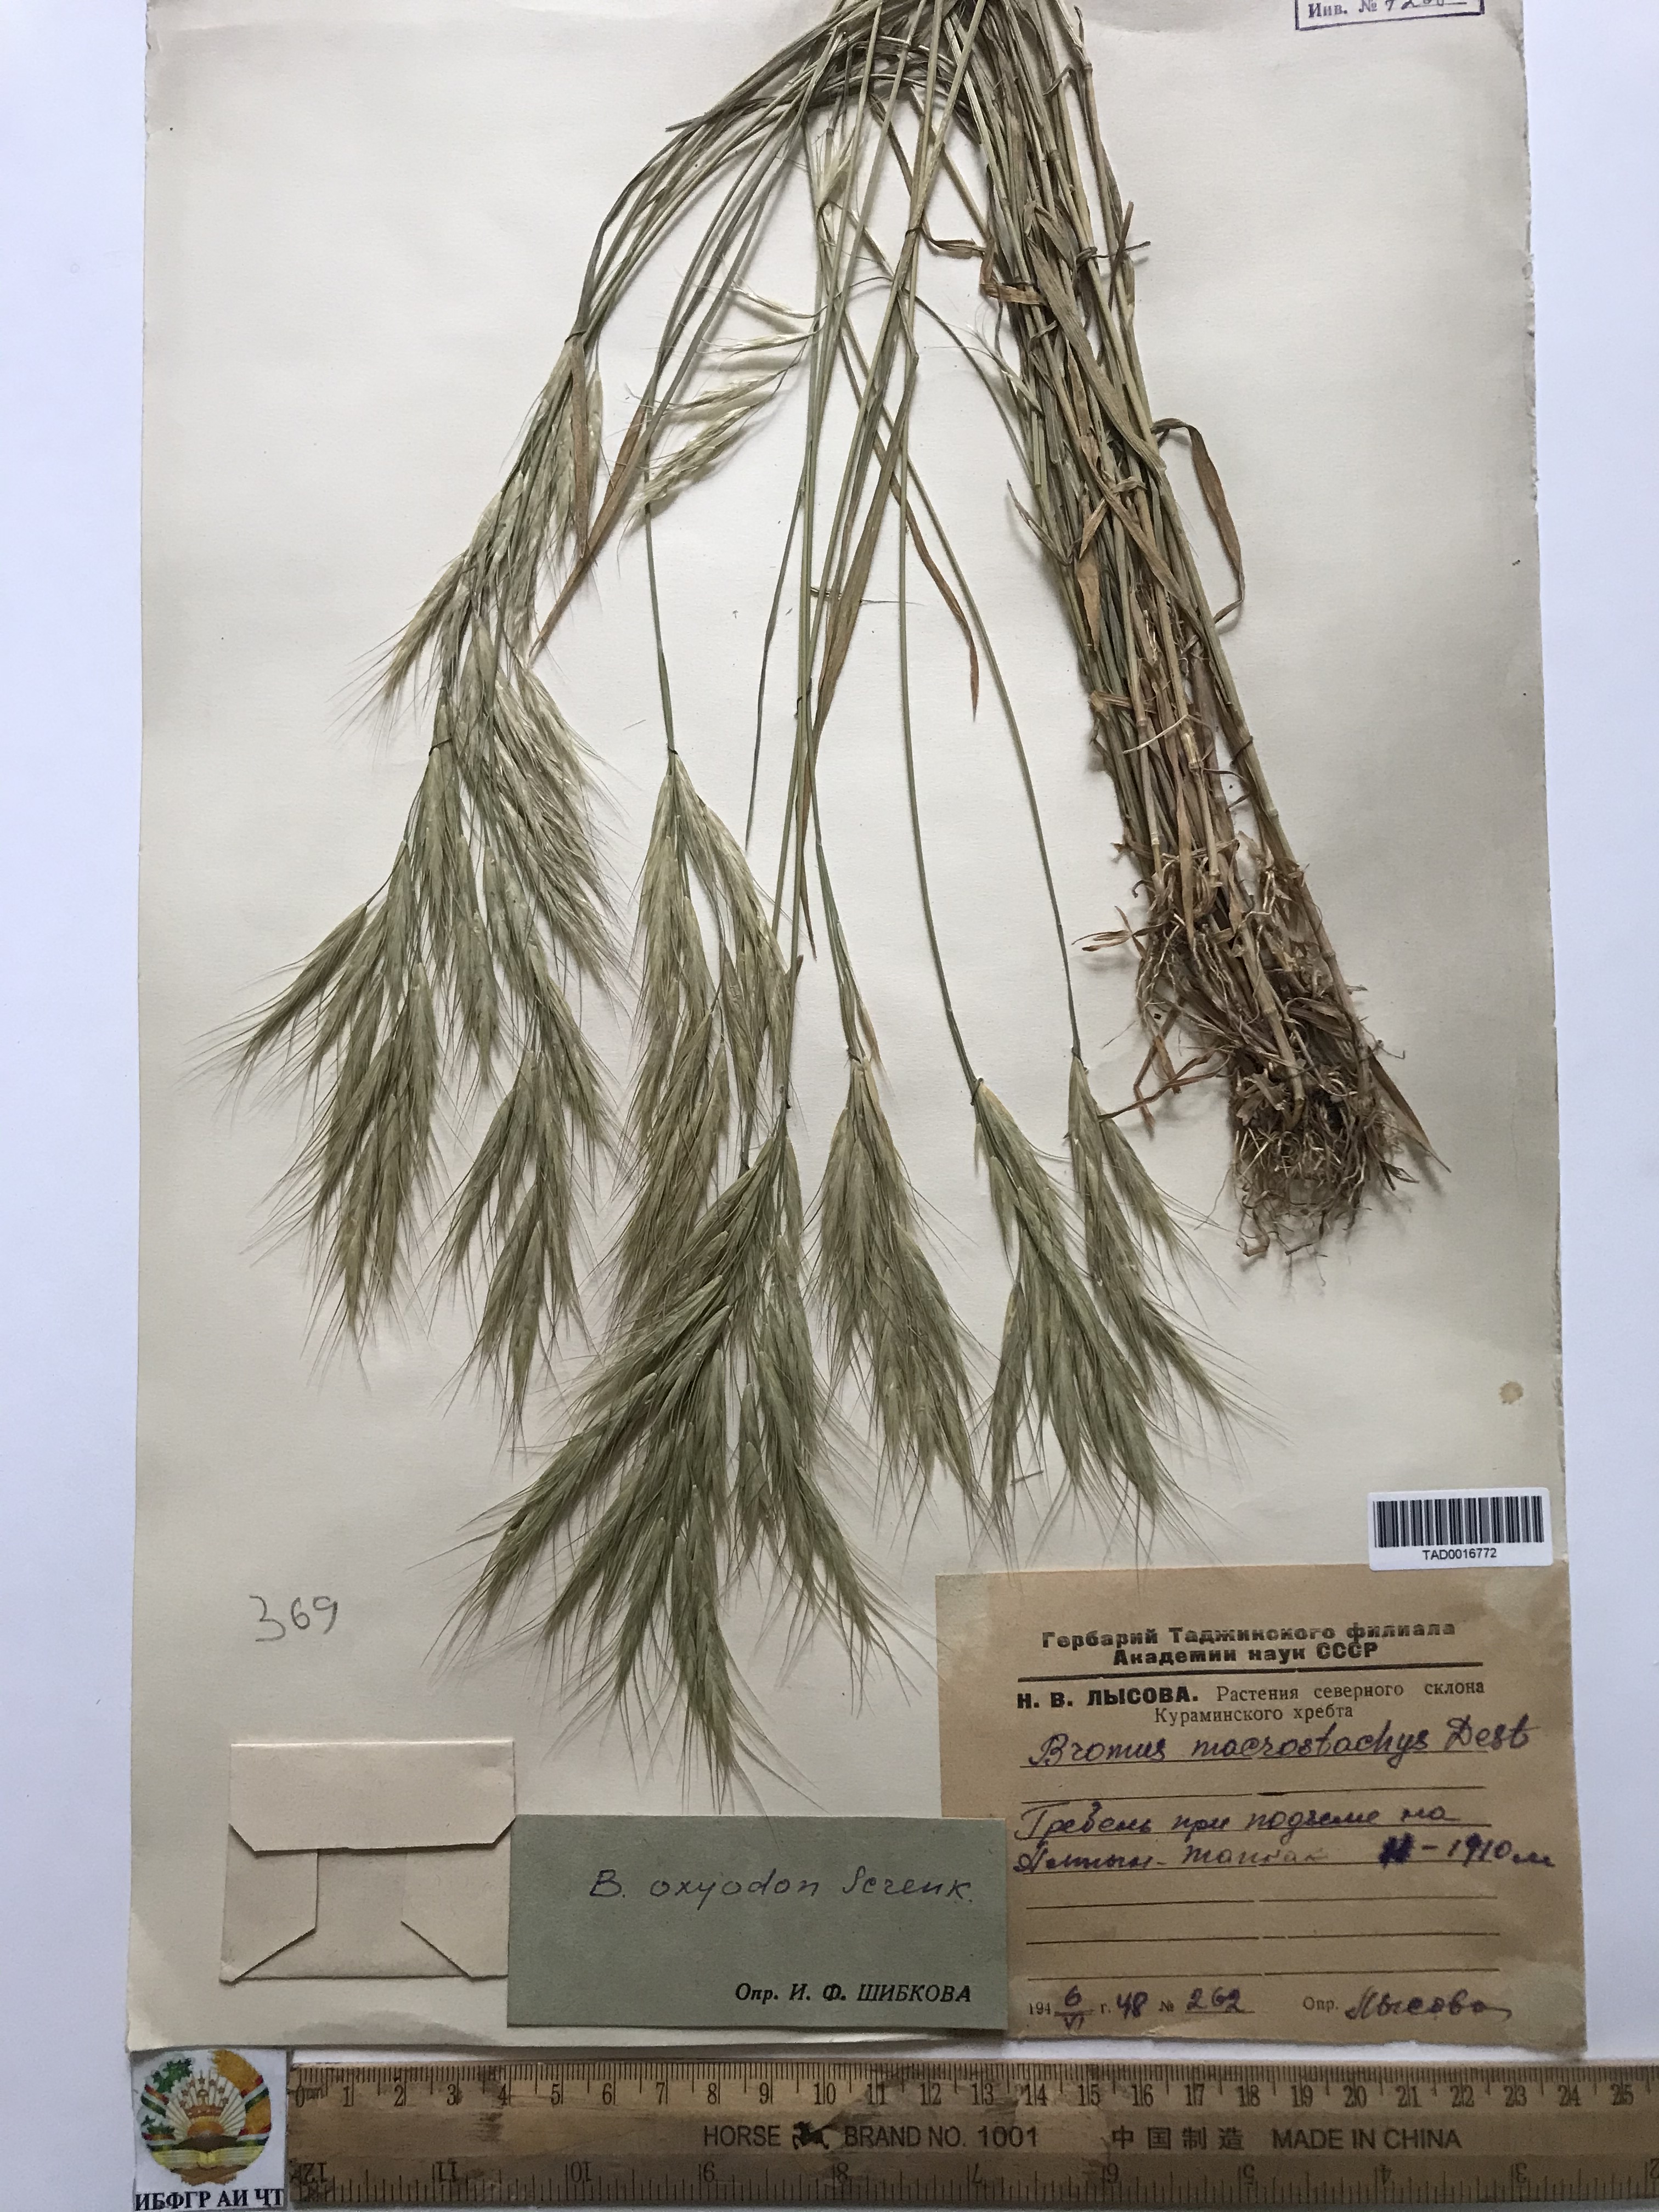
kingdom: Plantae
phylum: Tracheophyta
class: Liliopsida
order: Poales
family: Poaceae
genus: Bromus
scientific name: Bromus oxyodon
